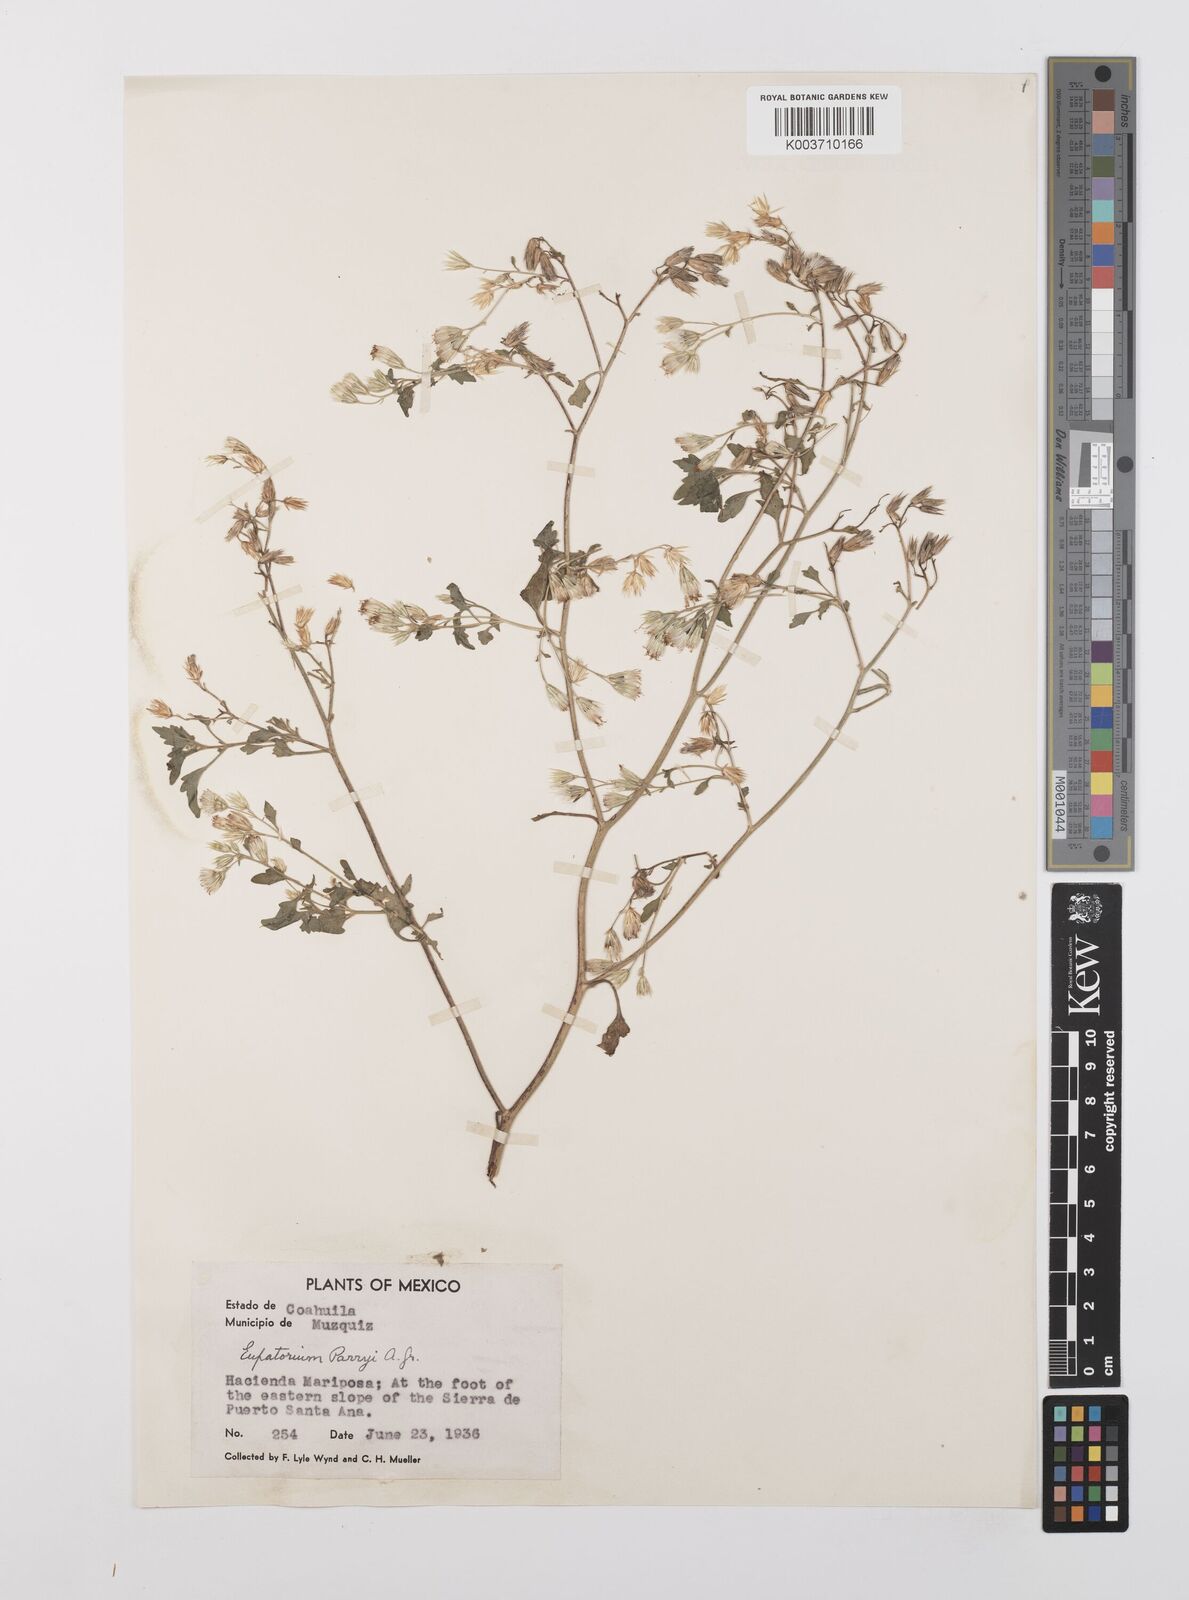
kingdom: Plantae
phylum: Tracheophyta
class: Magnoliopsida
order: Asterales
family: Asteraceae
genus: Flyriella
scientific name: Flyriella parryi
